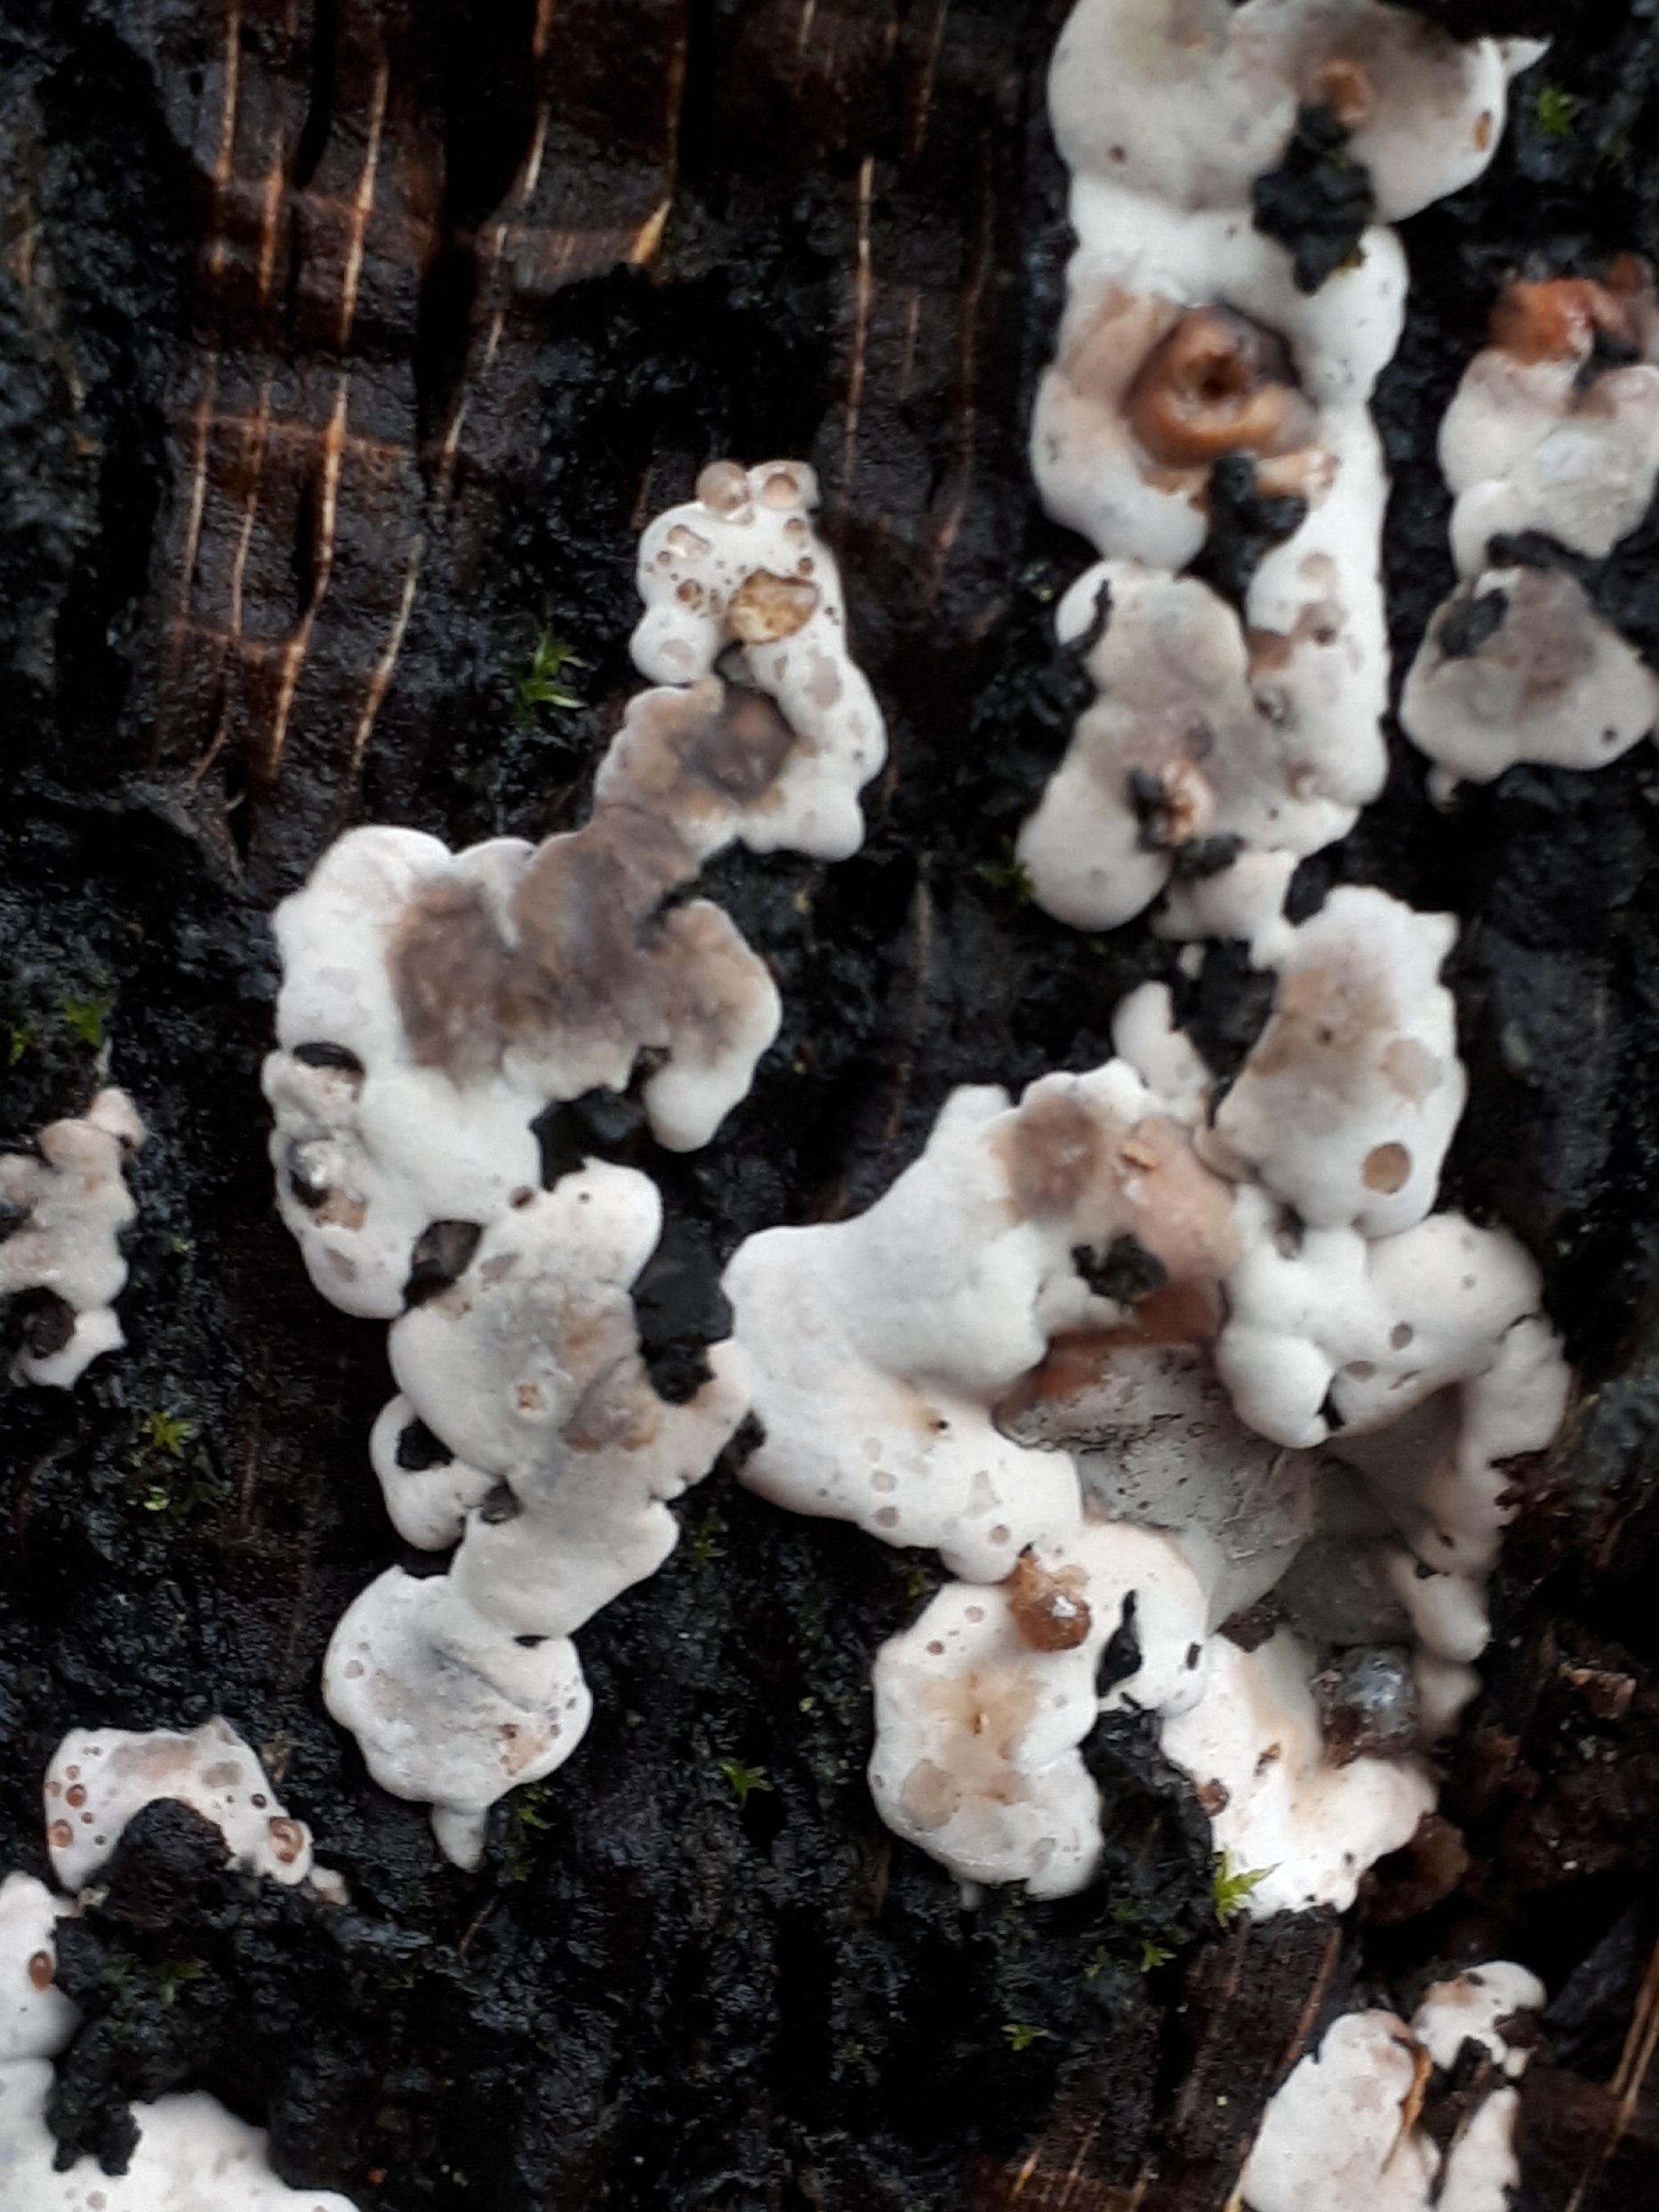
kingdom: Fungi
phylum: Ascomycota
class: Sordariomycetes
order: Xylariales
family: Xylariaceae
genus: Kretzschmaria
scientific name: Kretzschmaria deusta
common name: stor kulsvamp
